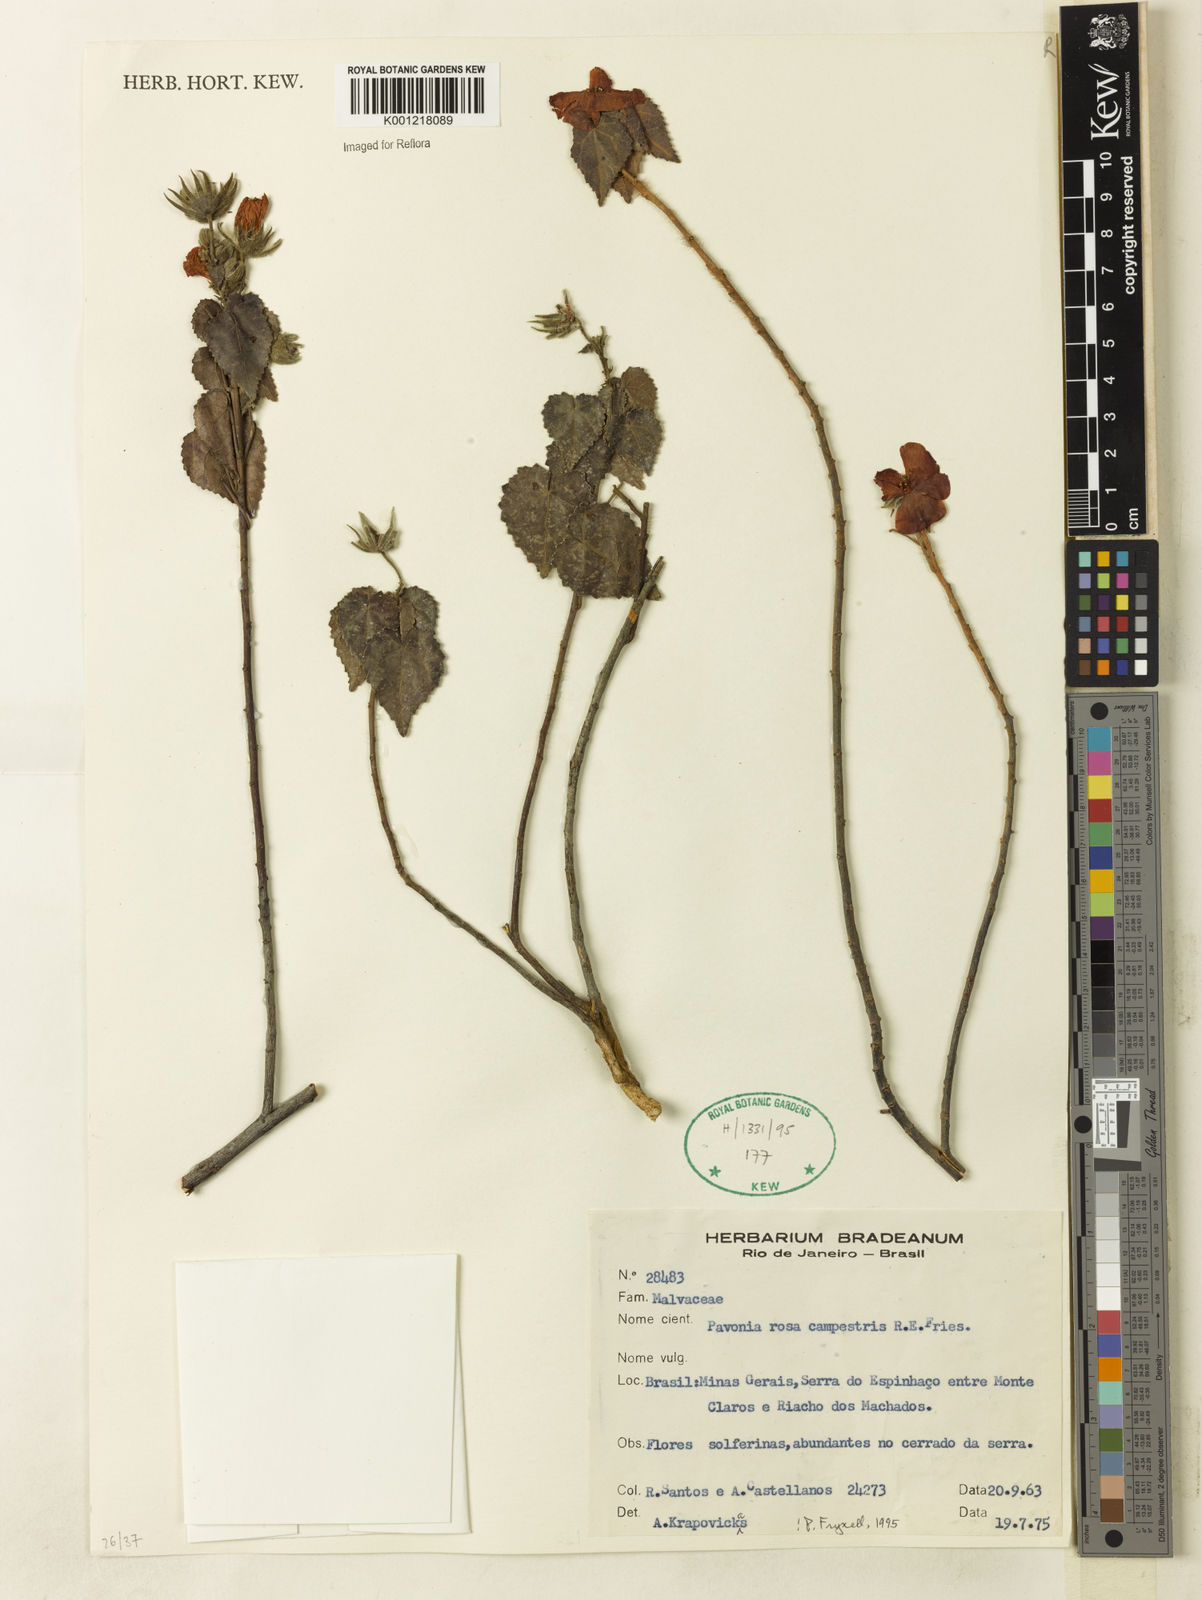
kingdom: Plantae
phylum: Tracheophyta
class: Magnoliopsida
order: Malvales
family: Malvaceae
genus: Pavonia
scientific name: Pavonia rosa-campestris
